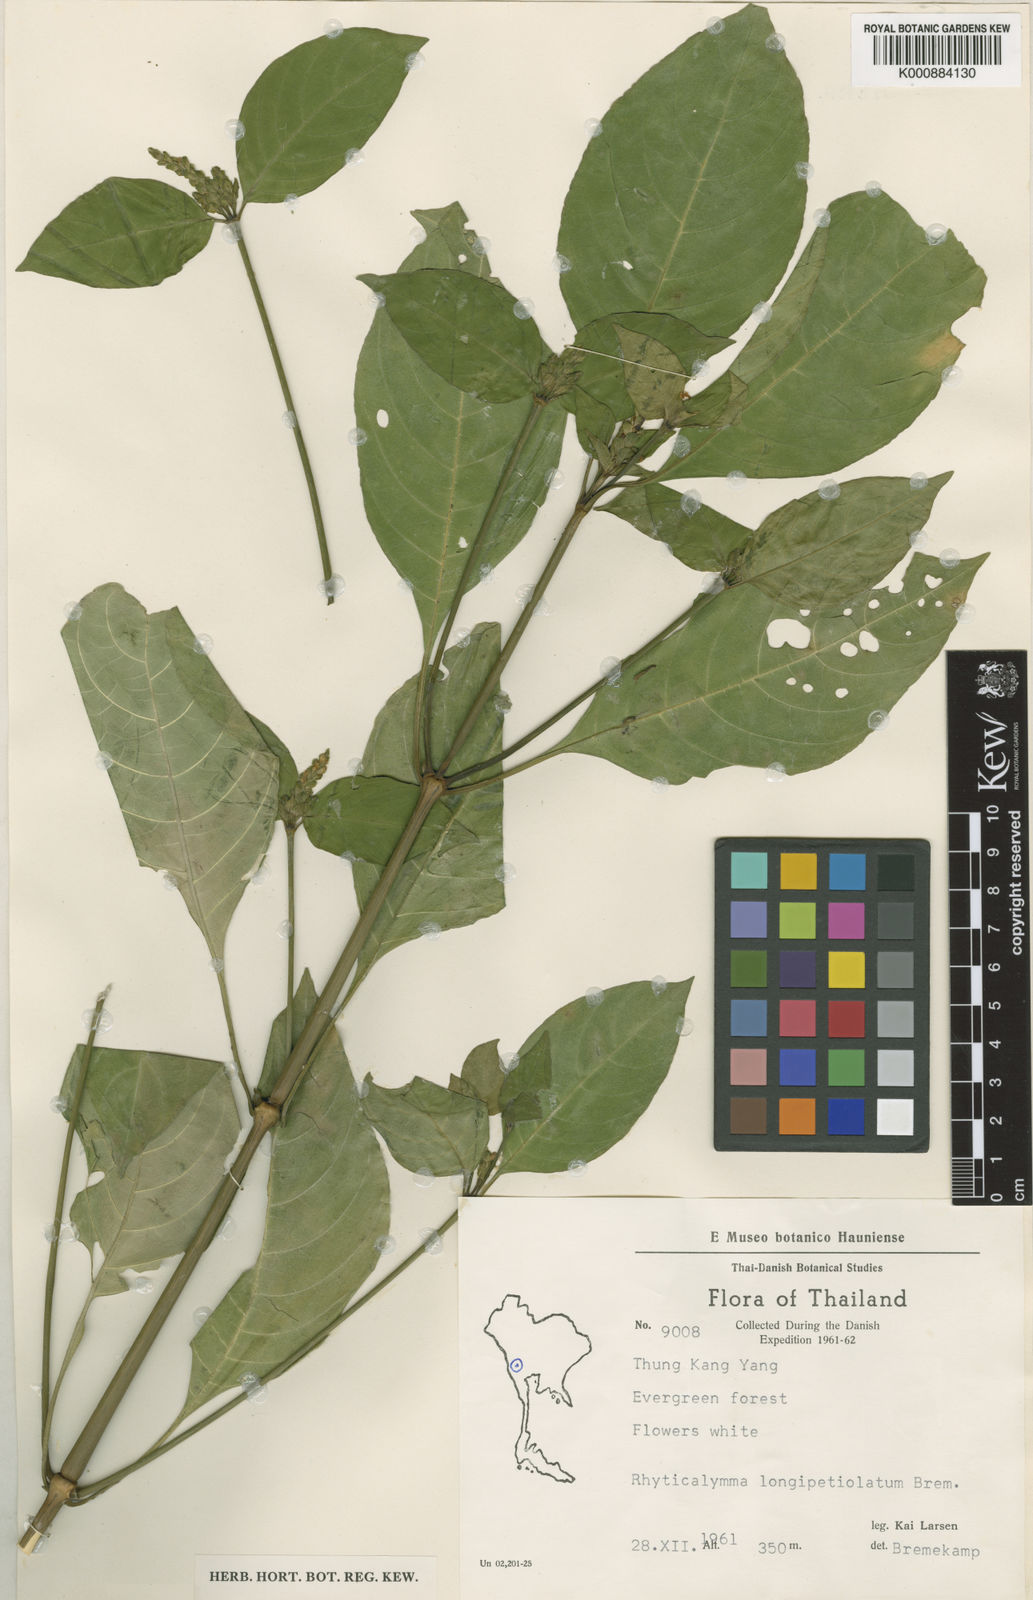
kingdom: Plantae
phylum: Tracheophyta
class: Magnoliopsida
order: Lamiales
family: Acanthaceae
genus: Justicia
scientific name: Justicia internodialis
